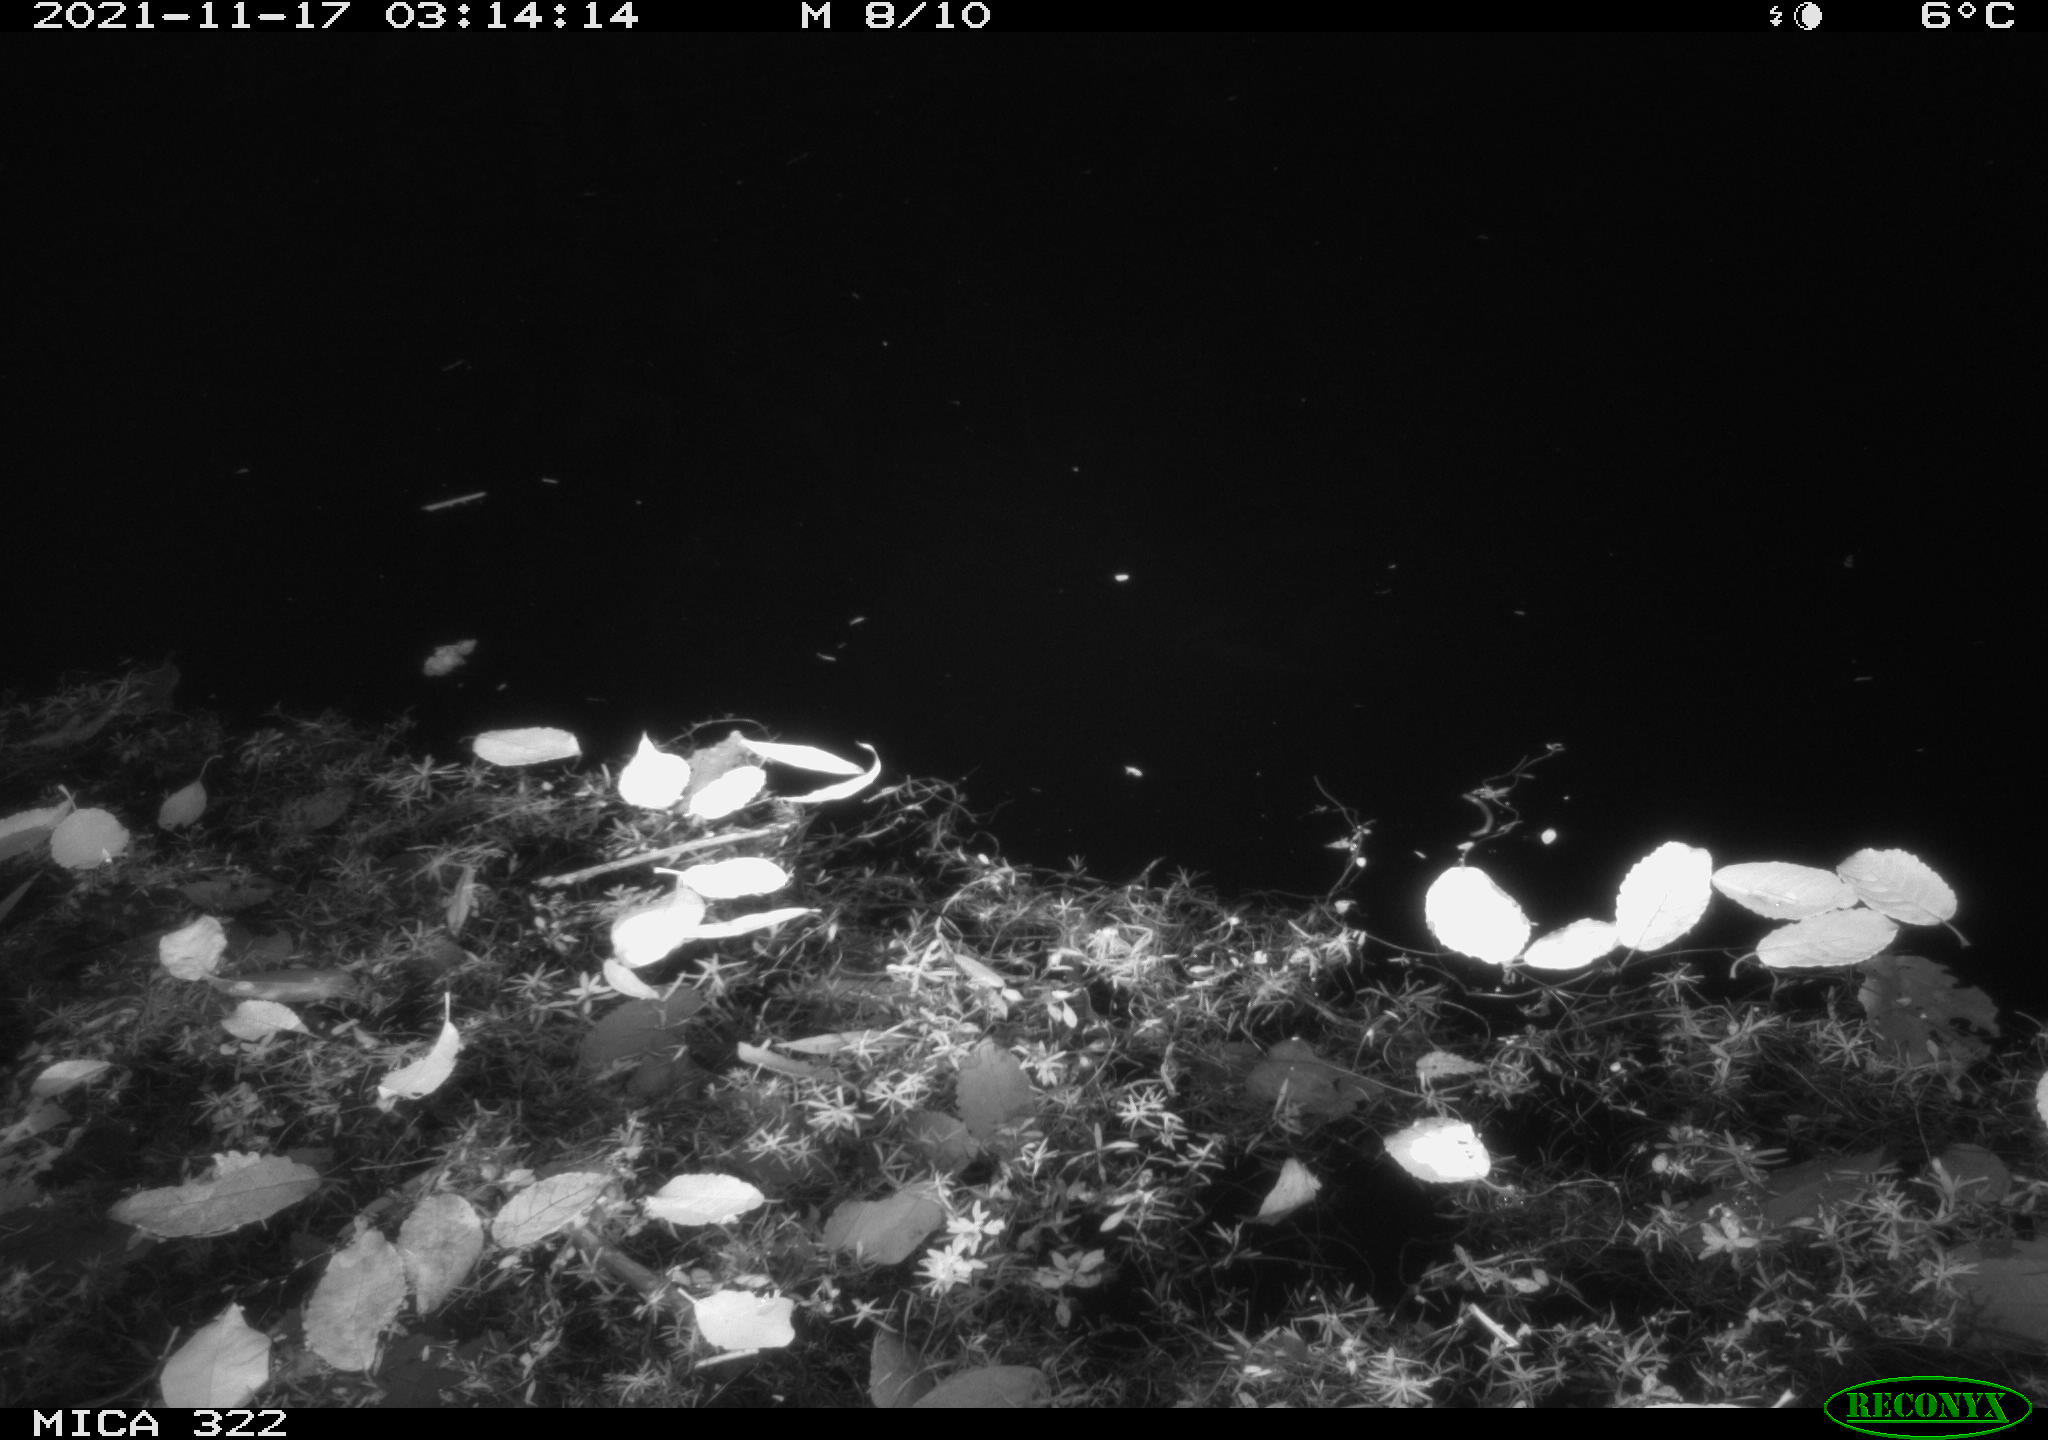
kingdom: Animalia
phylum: Chordata
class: Mammalia
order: Rodentia
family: Muridae
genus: Rattus
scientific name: Rattus norvegicus
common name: Brown rat
